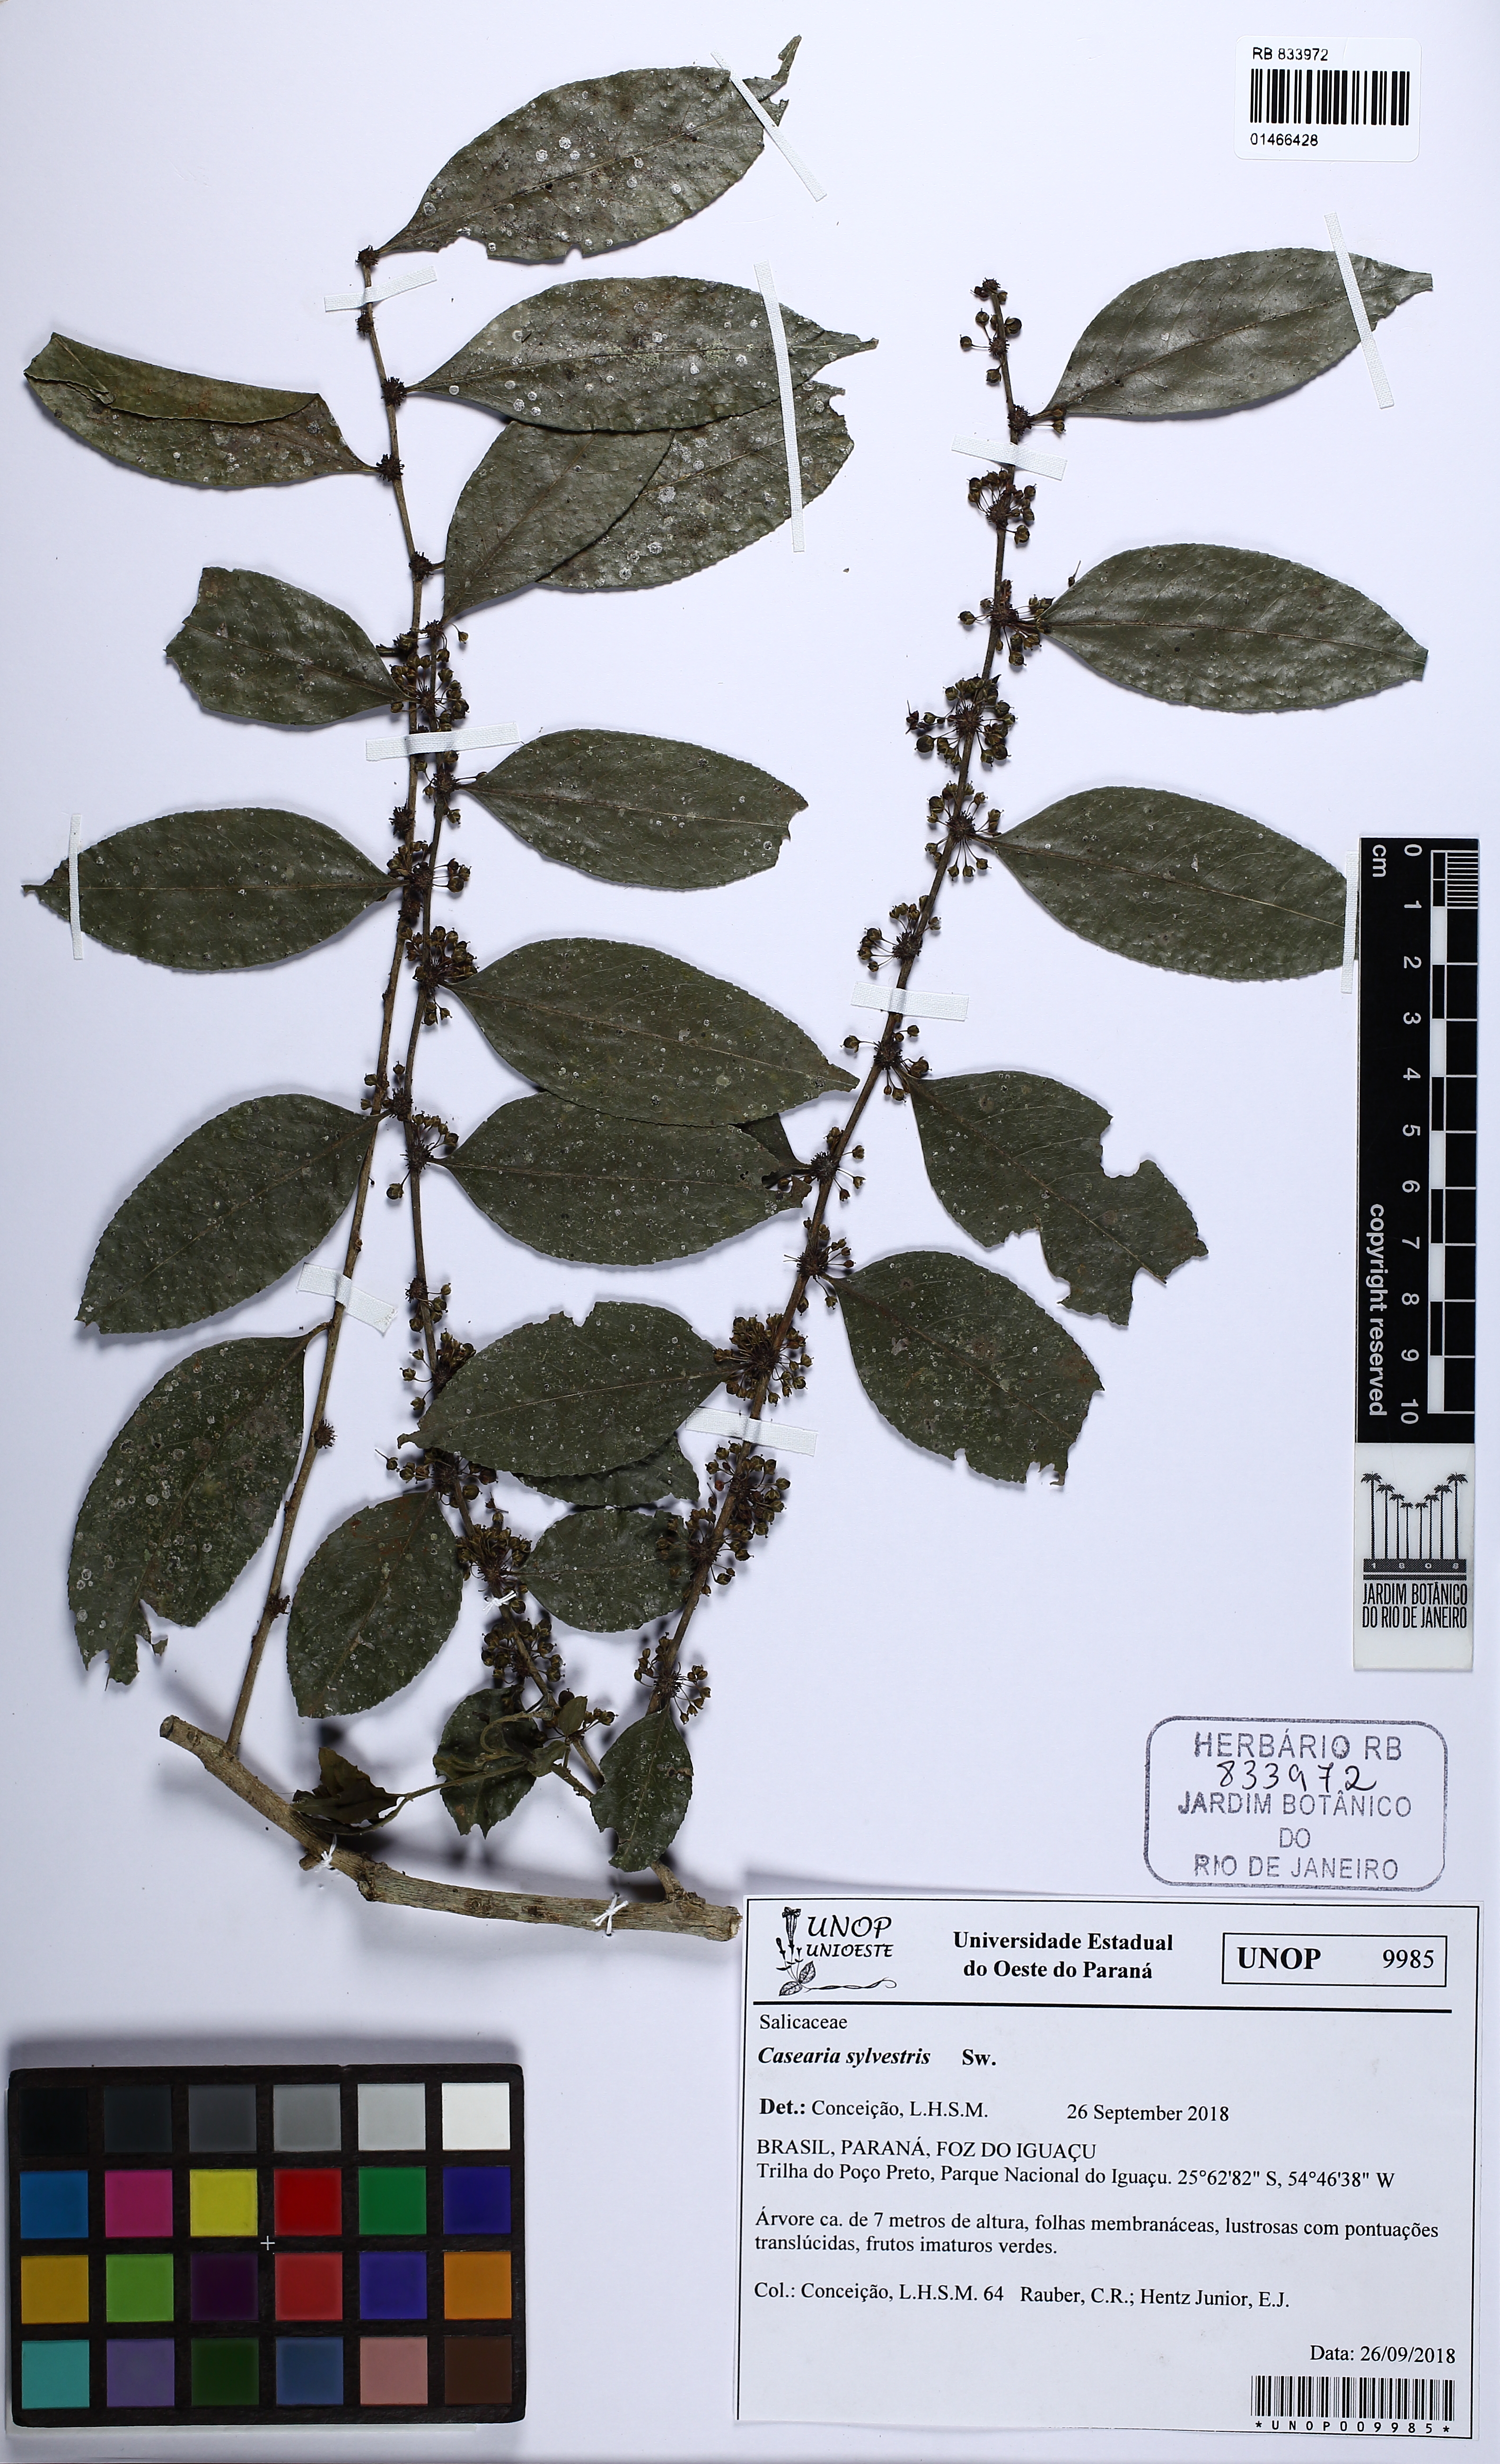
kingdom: Plantae
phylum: Tracheophyta
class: Magnoliopsida
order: Malpighiales
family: Salicaceae
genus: Casearia
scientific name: Casearia sylvestris
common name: Wild sage
